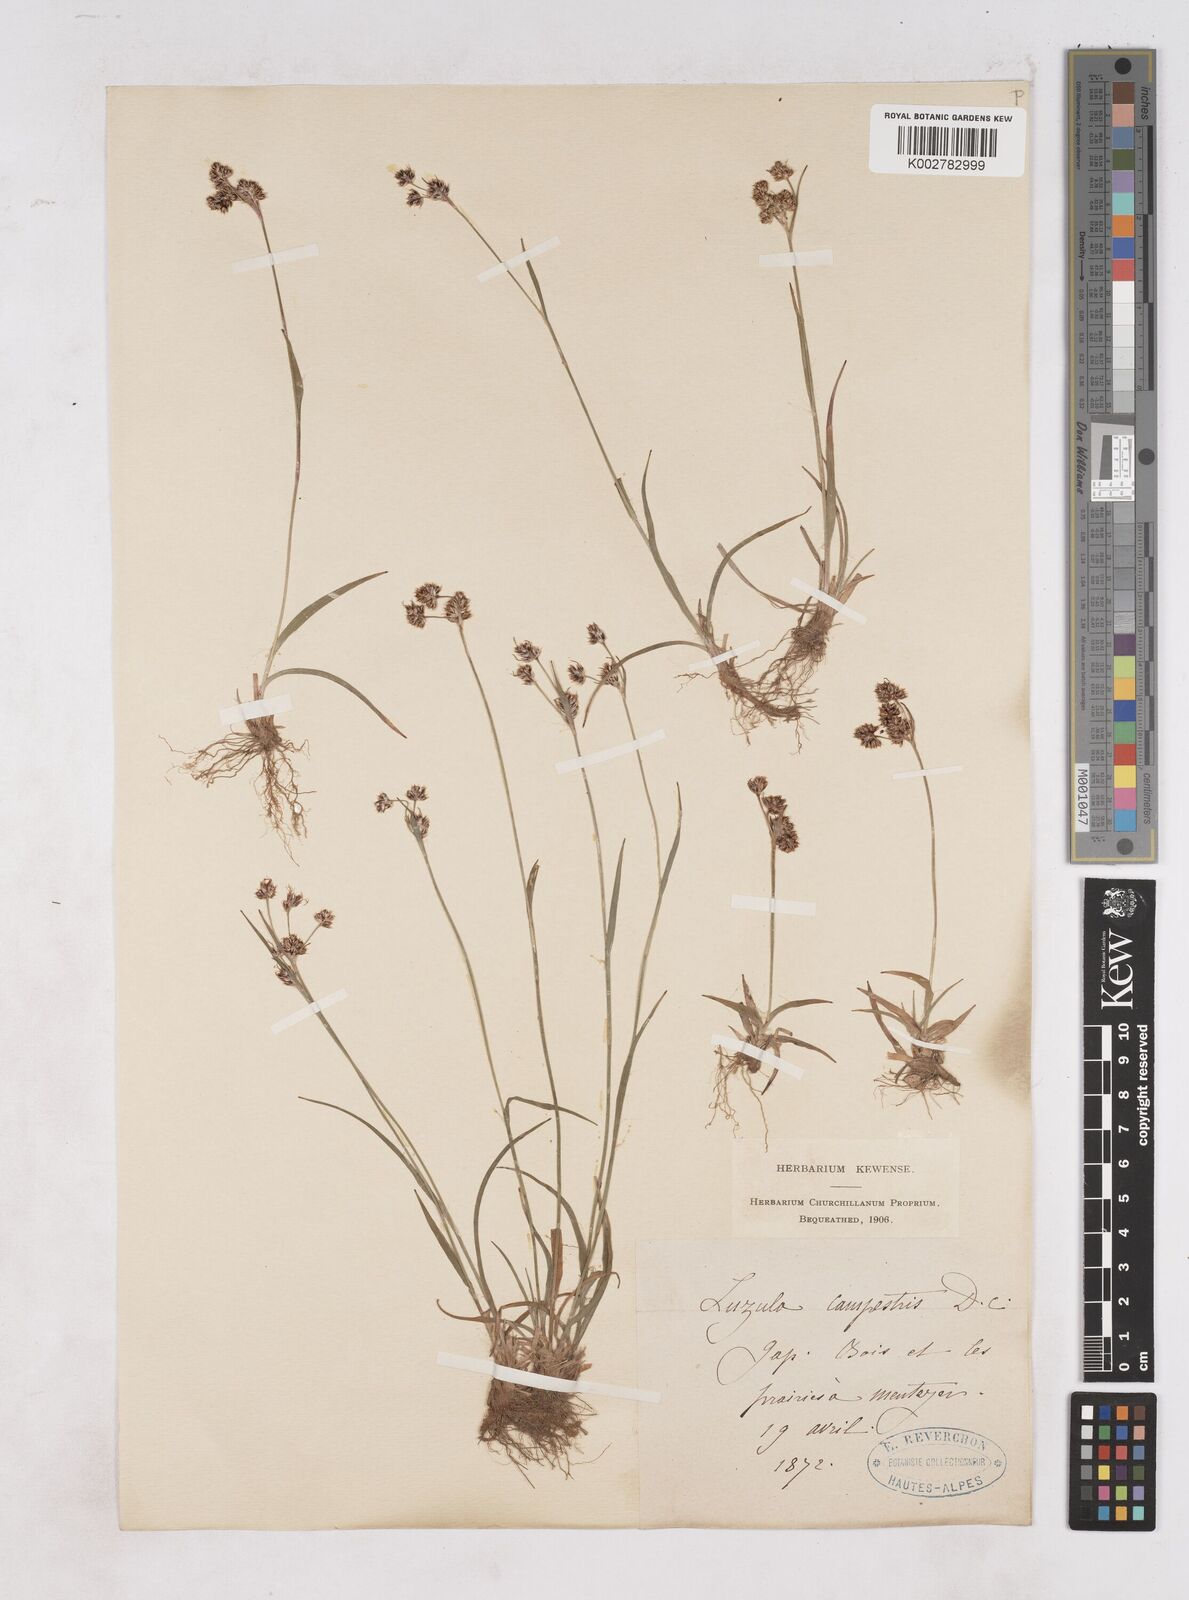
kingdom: Plantae
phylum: Tracheophyta
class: Liliopsida
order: Poales
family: Juncaceae
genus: Luzula
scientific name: Luzula campestris
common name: Field wood-rush
